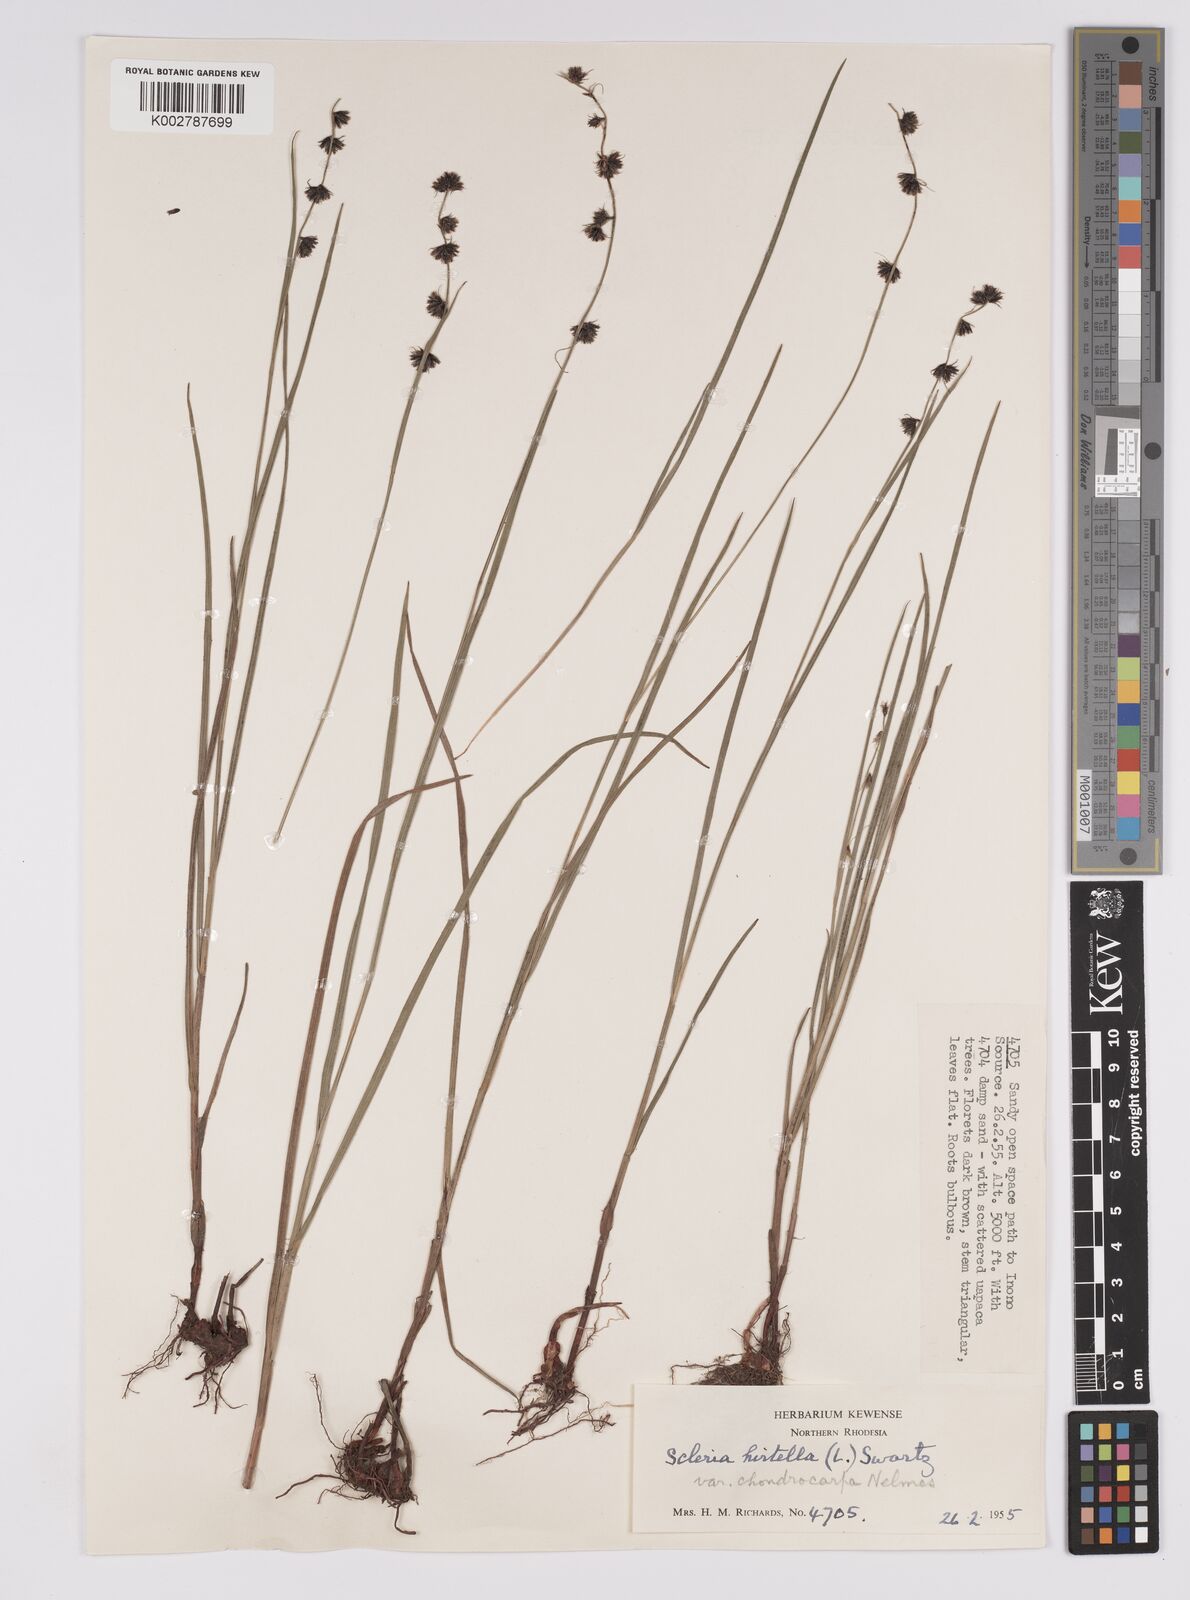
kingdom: Plantae
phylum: Tracheophyta
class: Liliopsida
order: Poales
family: Cyperaceae
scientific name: Cyperaceae
